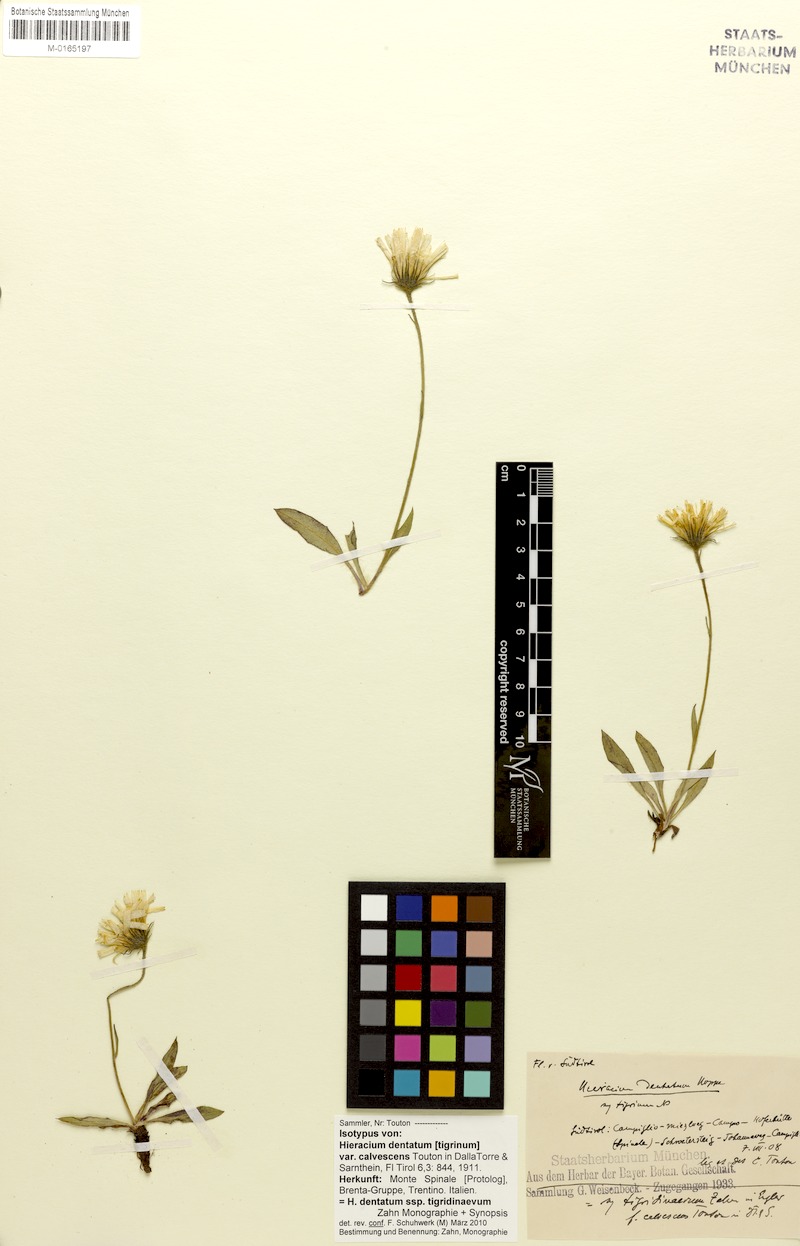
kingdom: Plantae
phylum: Tracheophyta
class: Magnoliopsida
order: Asterales
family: Asteraceae
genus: Hieracium
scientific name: Hieracium dentatum
